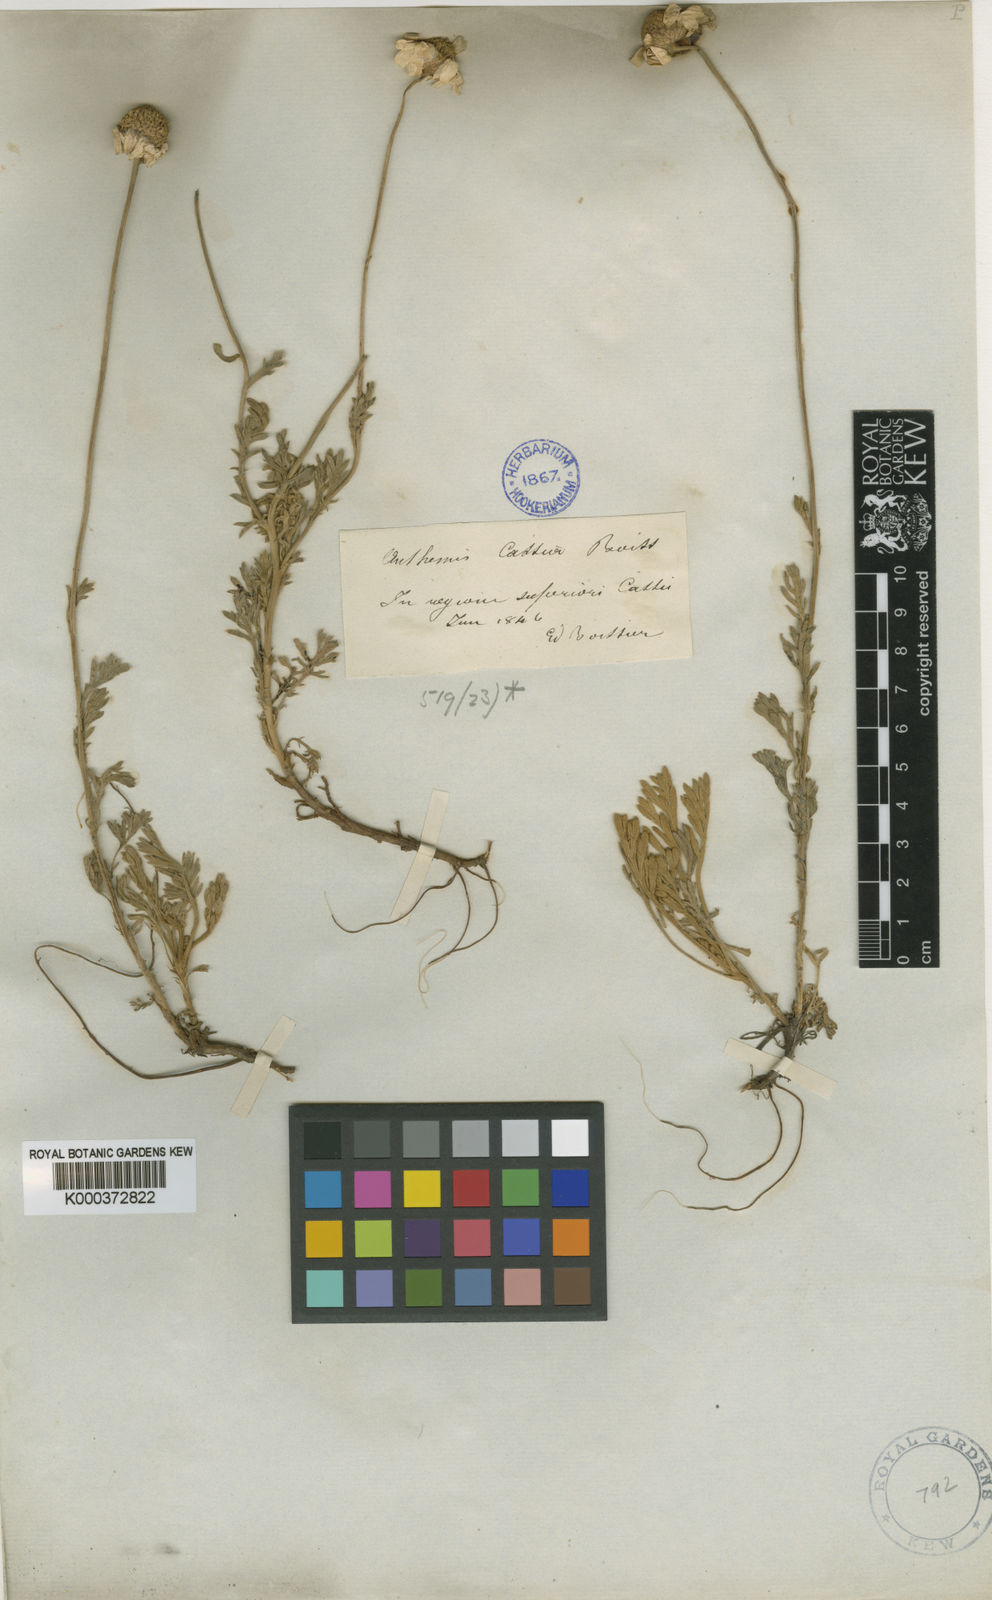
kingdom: Plantae
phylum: Tracheophyta
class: Magnoliopsida
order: Asterales
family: Asteraceae
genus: Anthemis
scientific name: Anthemis cretica
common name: Mountain dog-daisy
